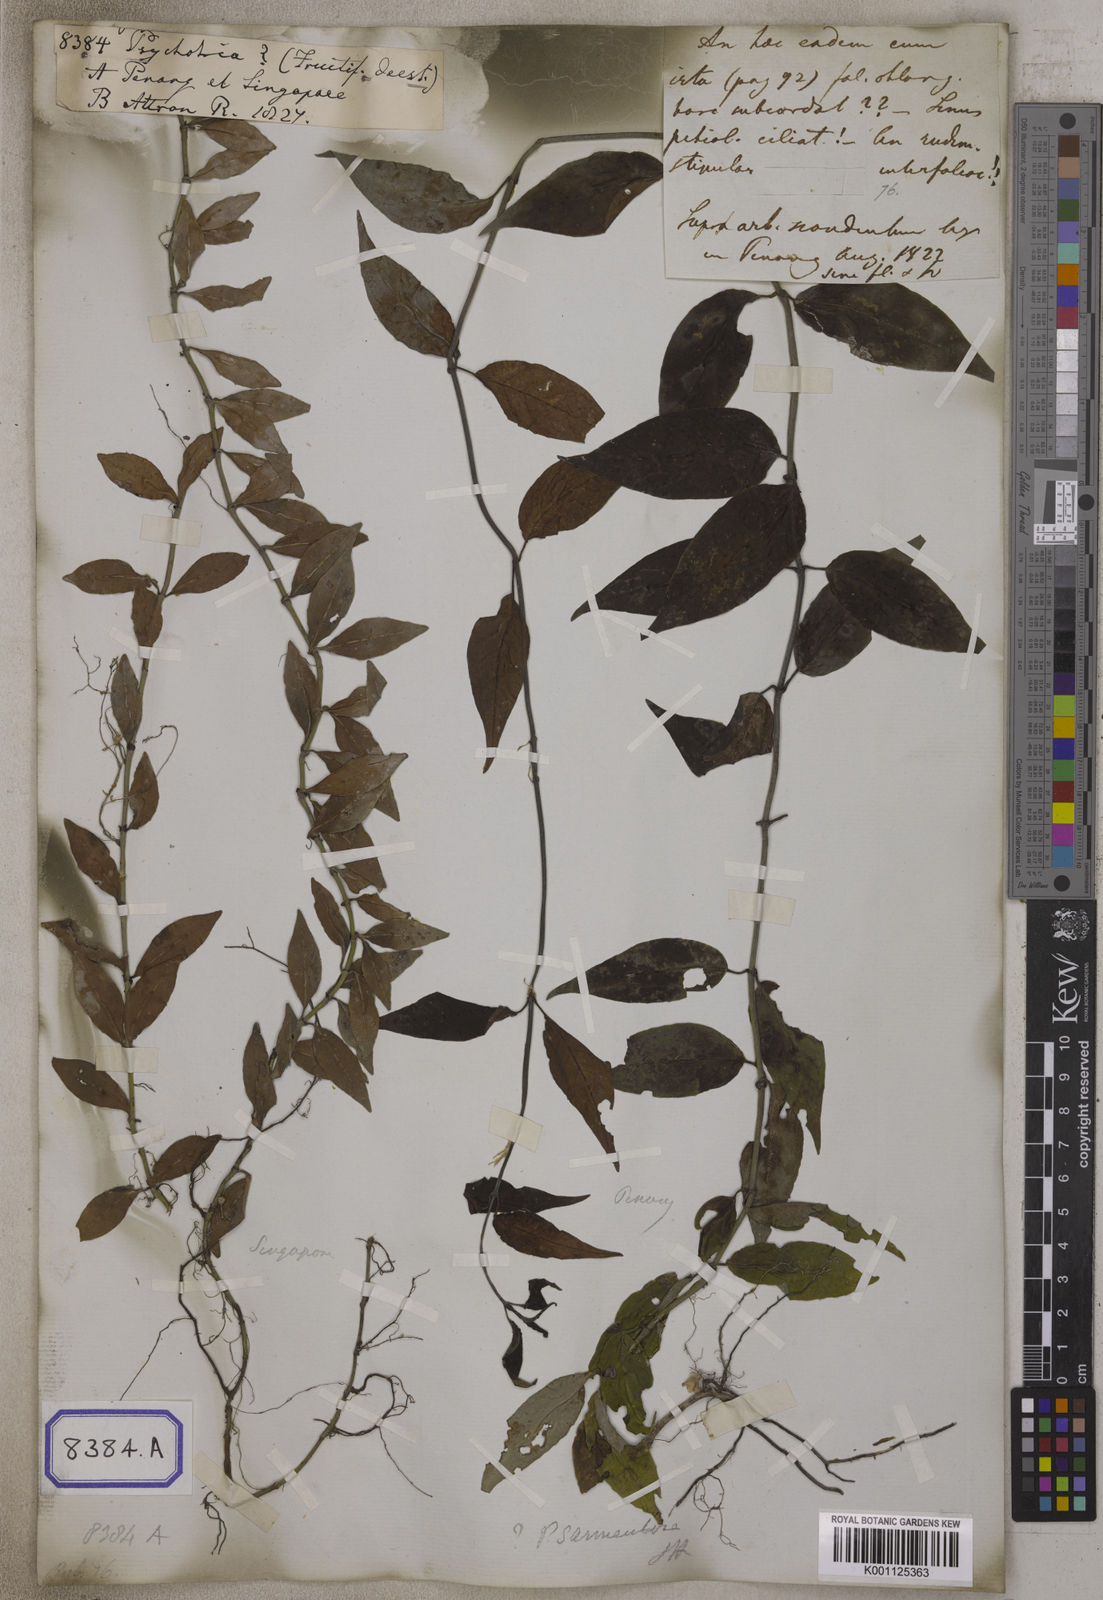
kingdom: Plantae
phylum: Tracheophyta
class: Magnoliopsida
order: Gentianales
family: Rubiaceae
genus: Psychotria
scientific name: Psychotria
